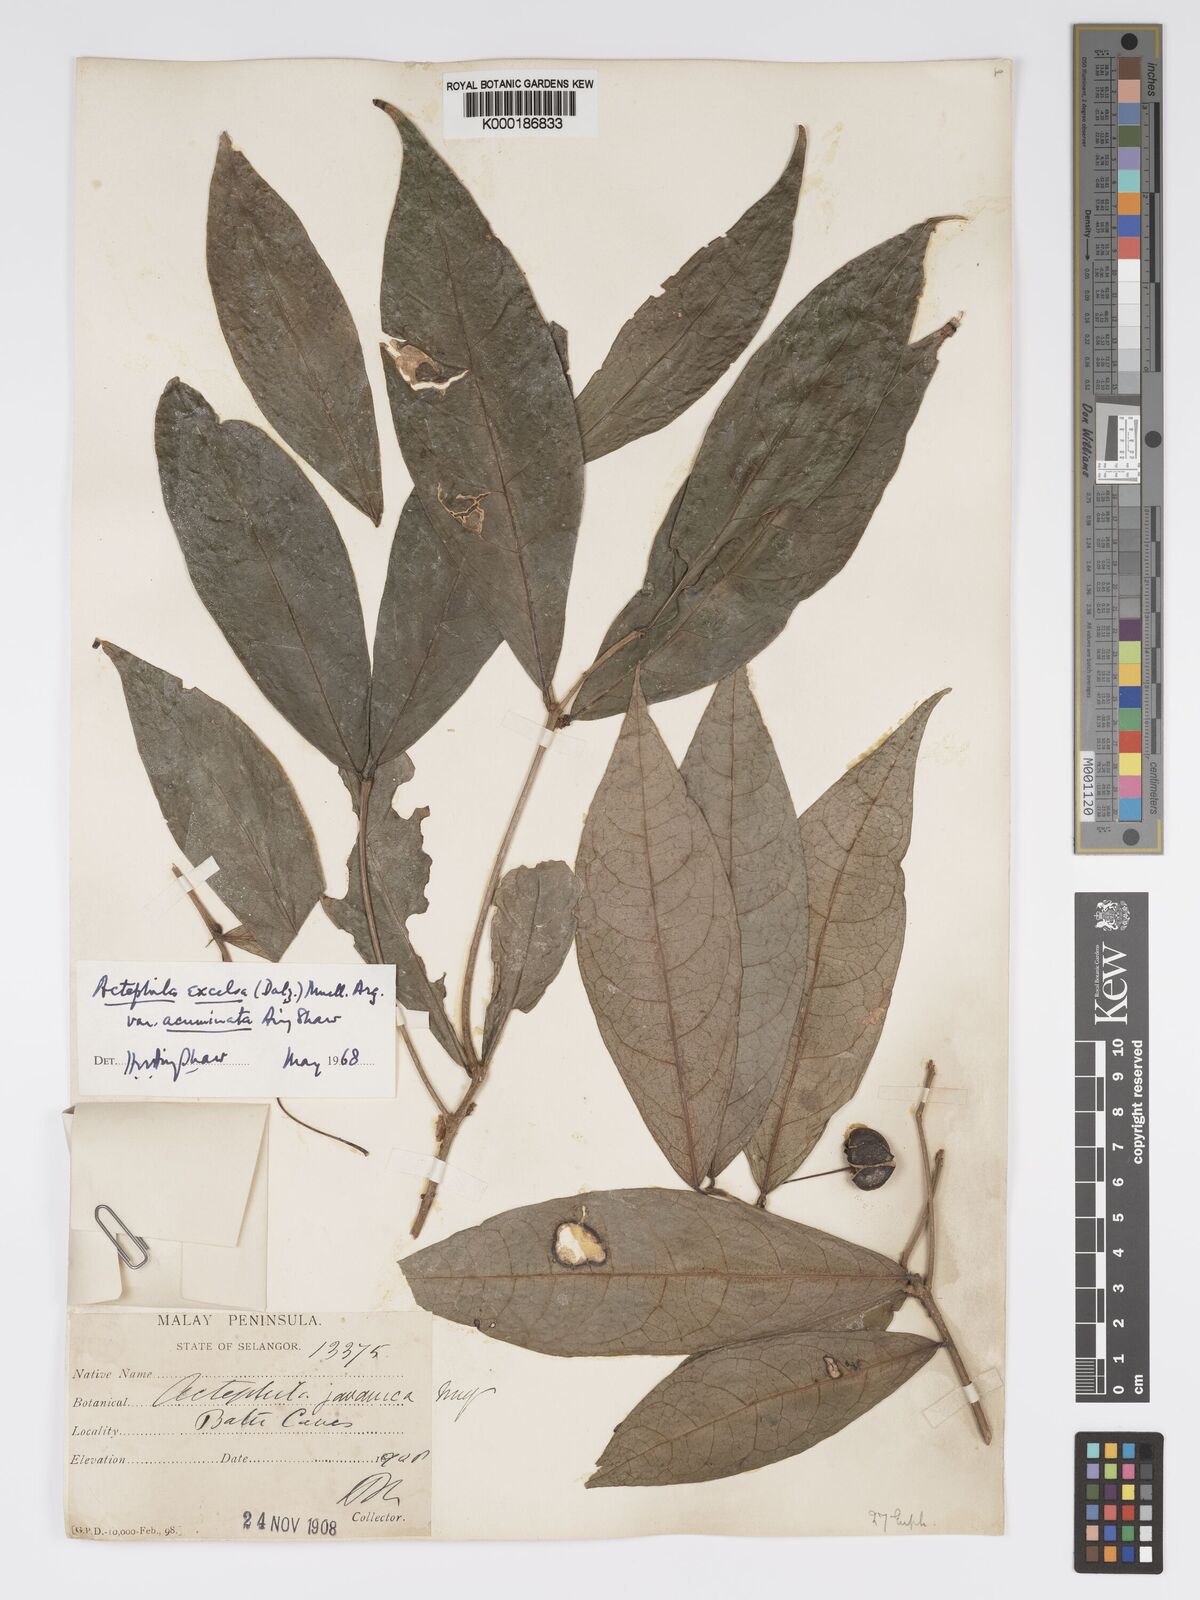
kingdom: Plantae
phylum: Tracheophyta
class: Magnoliopsida
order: Malpighiales
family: Phyllanthaceae
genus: Actephila
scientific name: Actephila subsessilis
